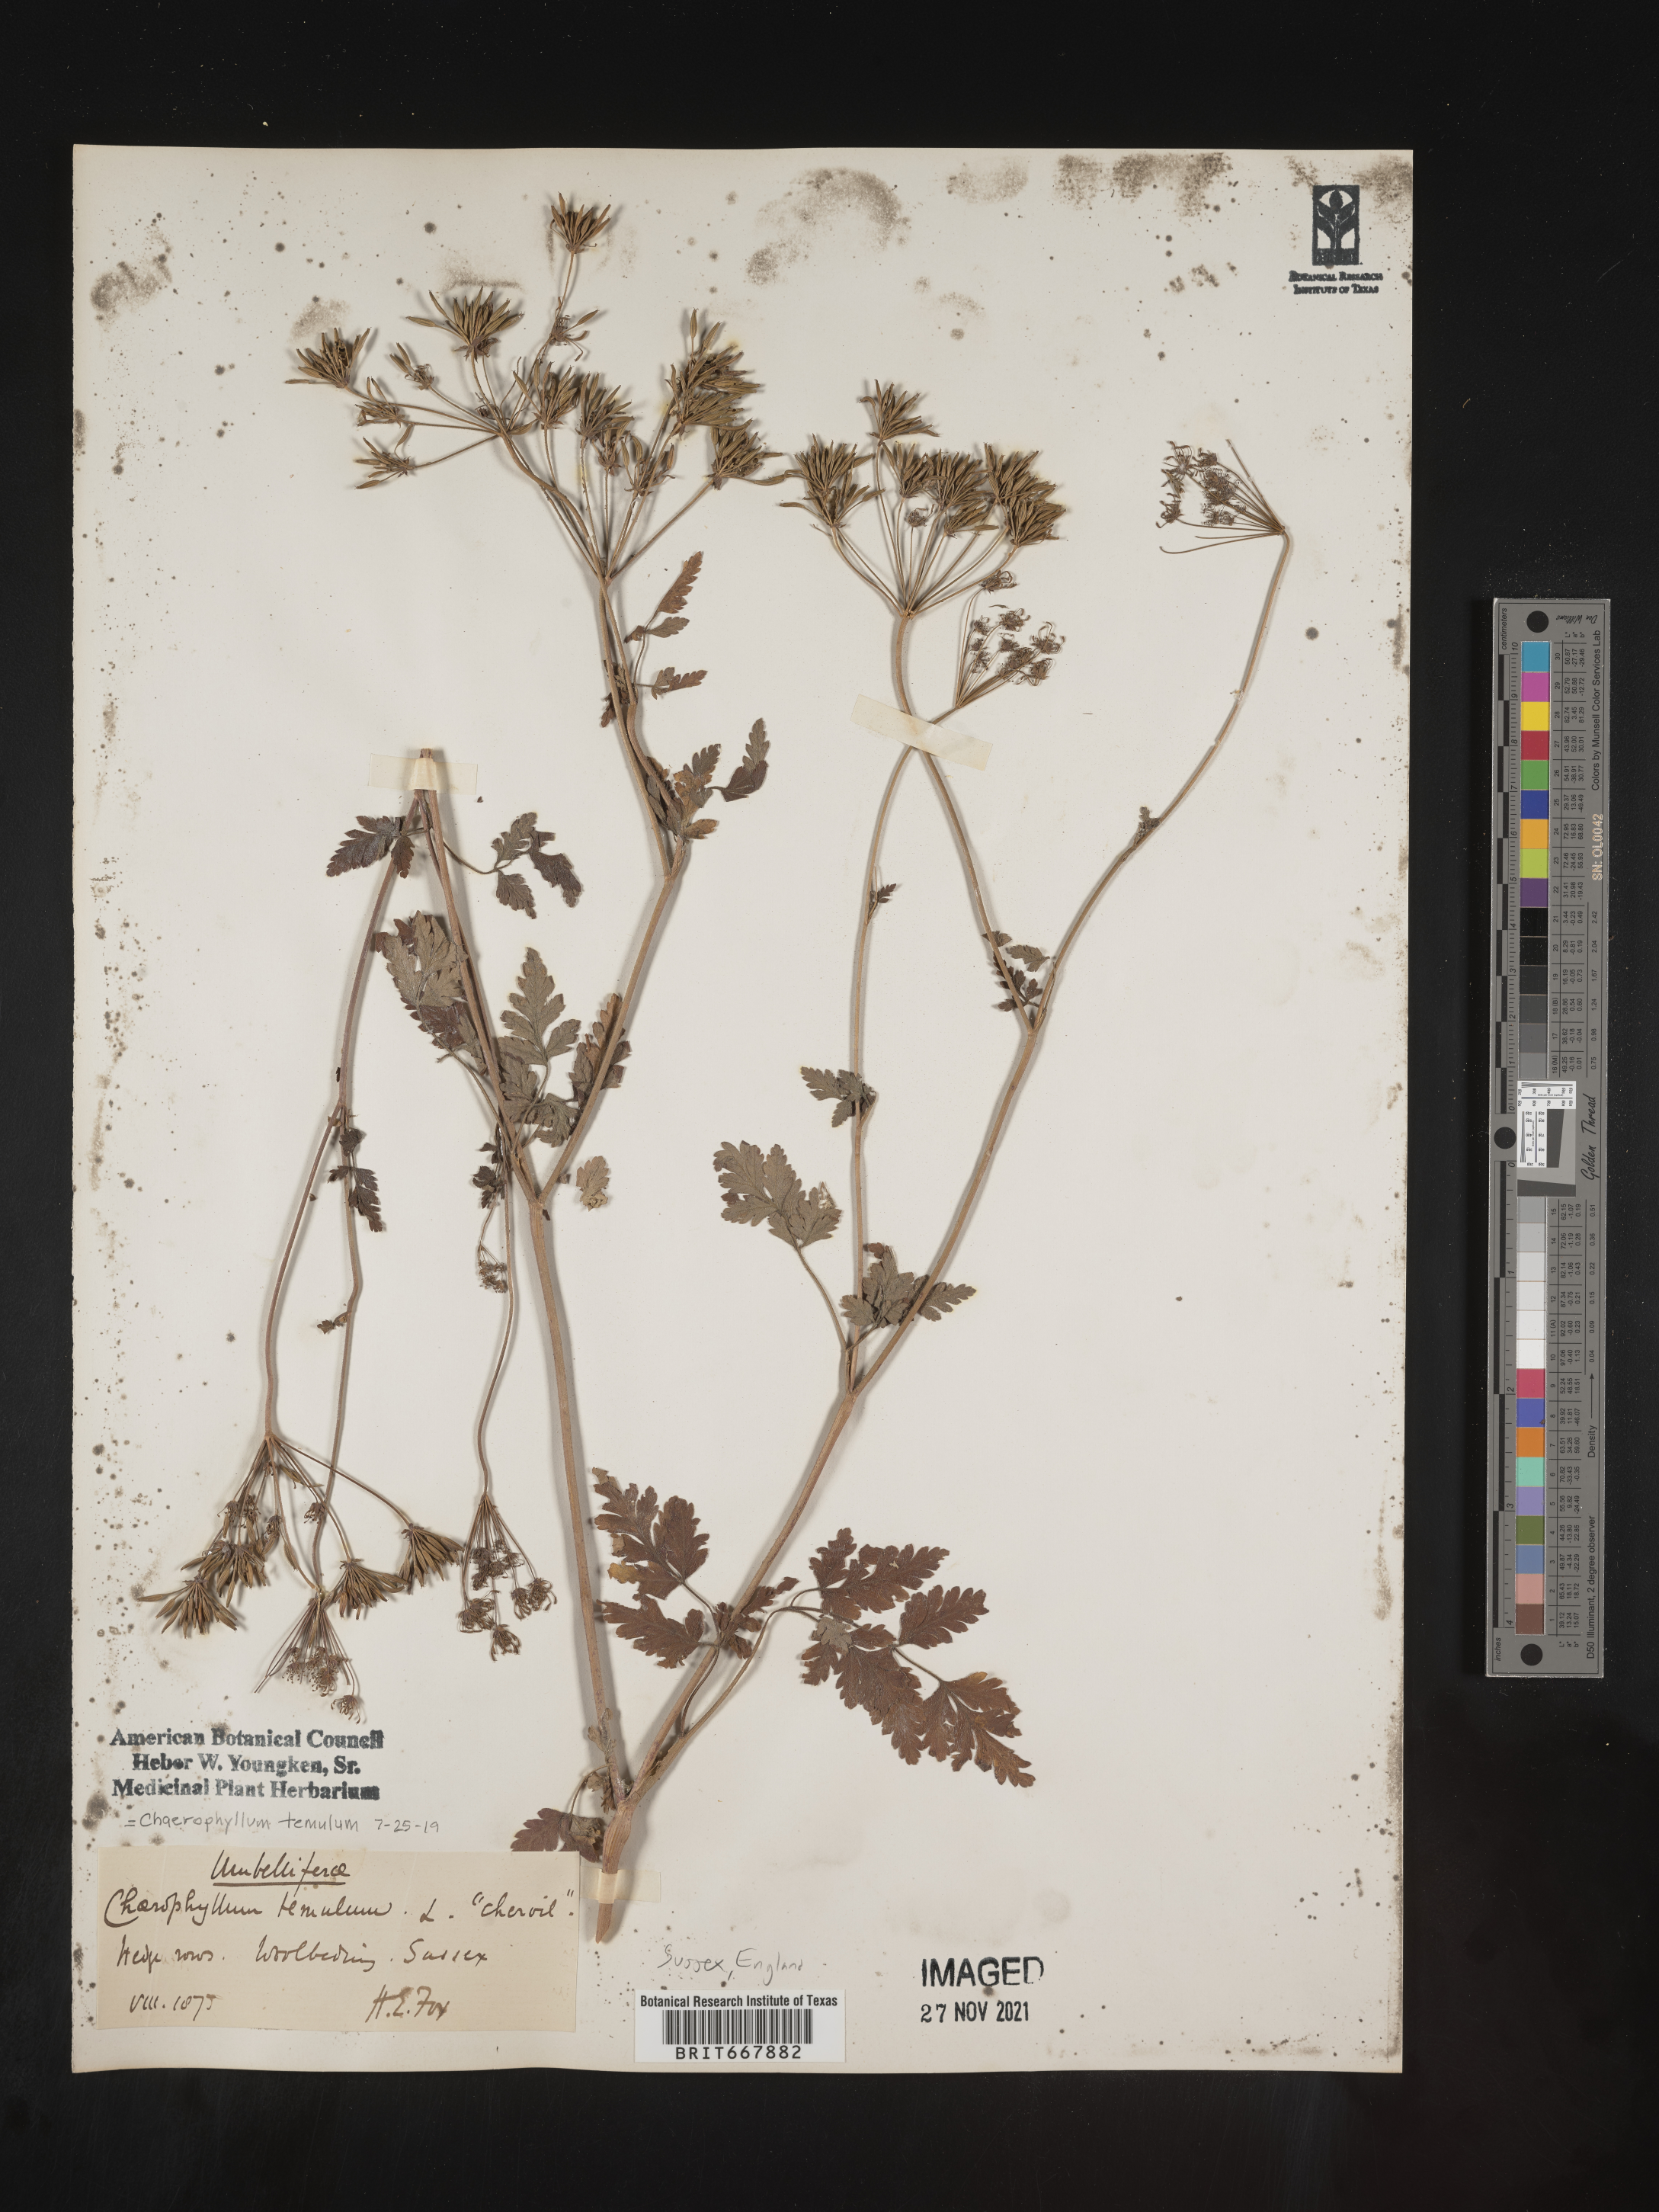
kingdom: Plantae
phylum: Tracheophyta
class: Magnoliopsida
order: Apiales
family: Apiaceae
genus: Chaerophyllum
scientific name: Chaerophyllum
